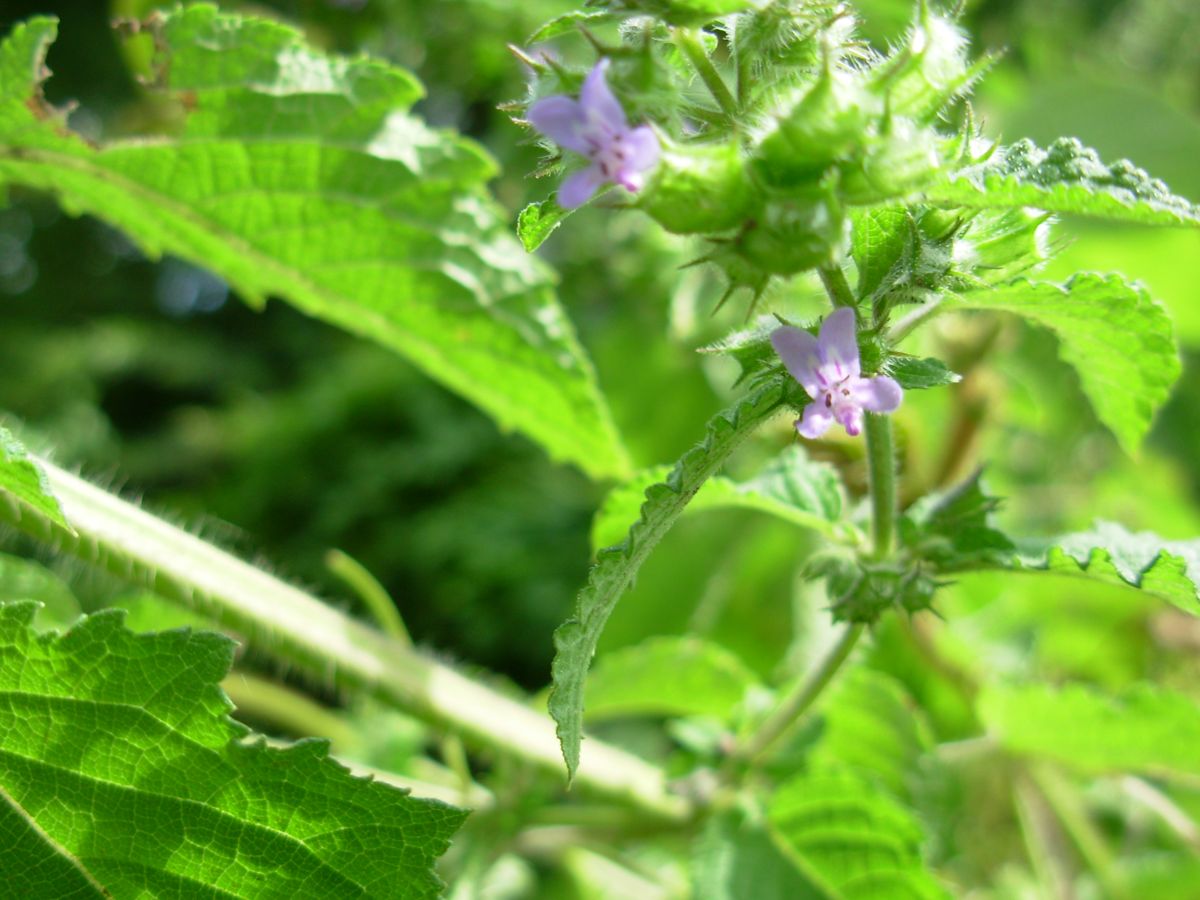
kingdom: Plantae
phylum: Tracheophyta
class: Magnoliopsida
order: Lamiales
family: Lamiaceae
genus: Mesosphaerum
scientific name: Mesosphaerum suaveolens
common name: Pignut
